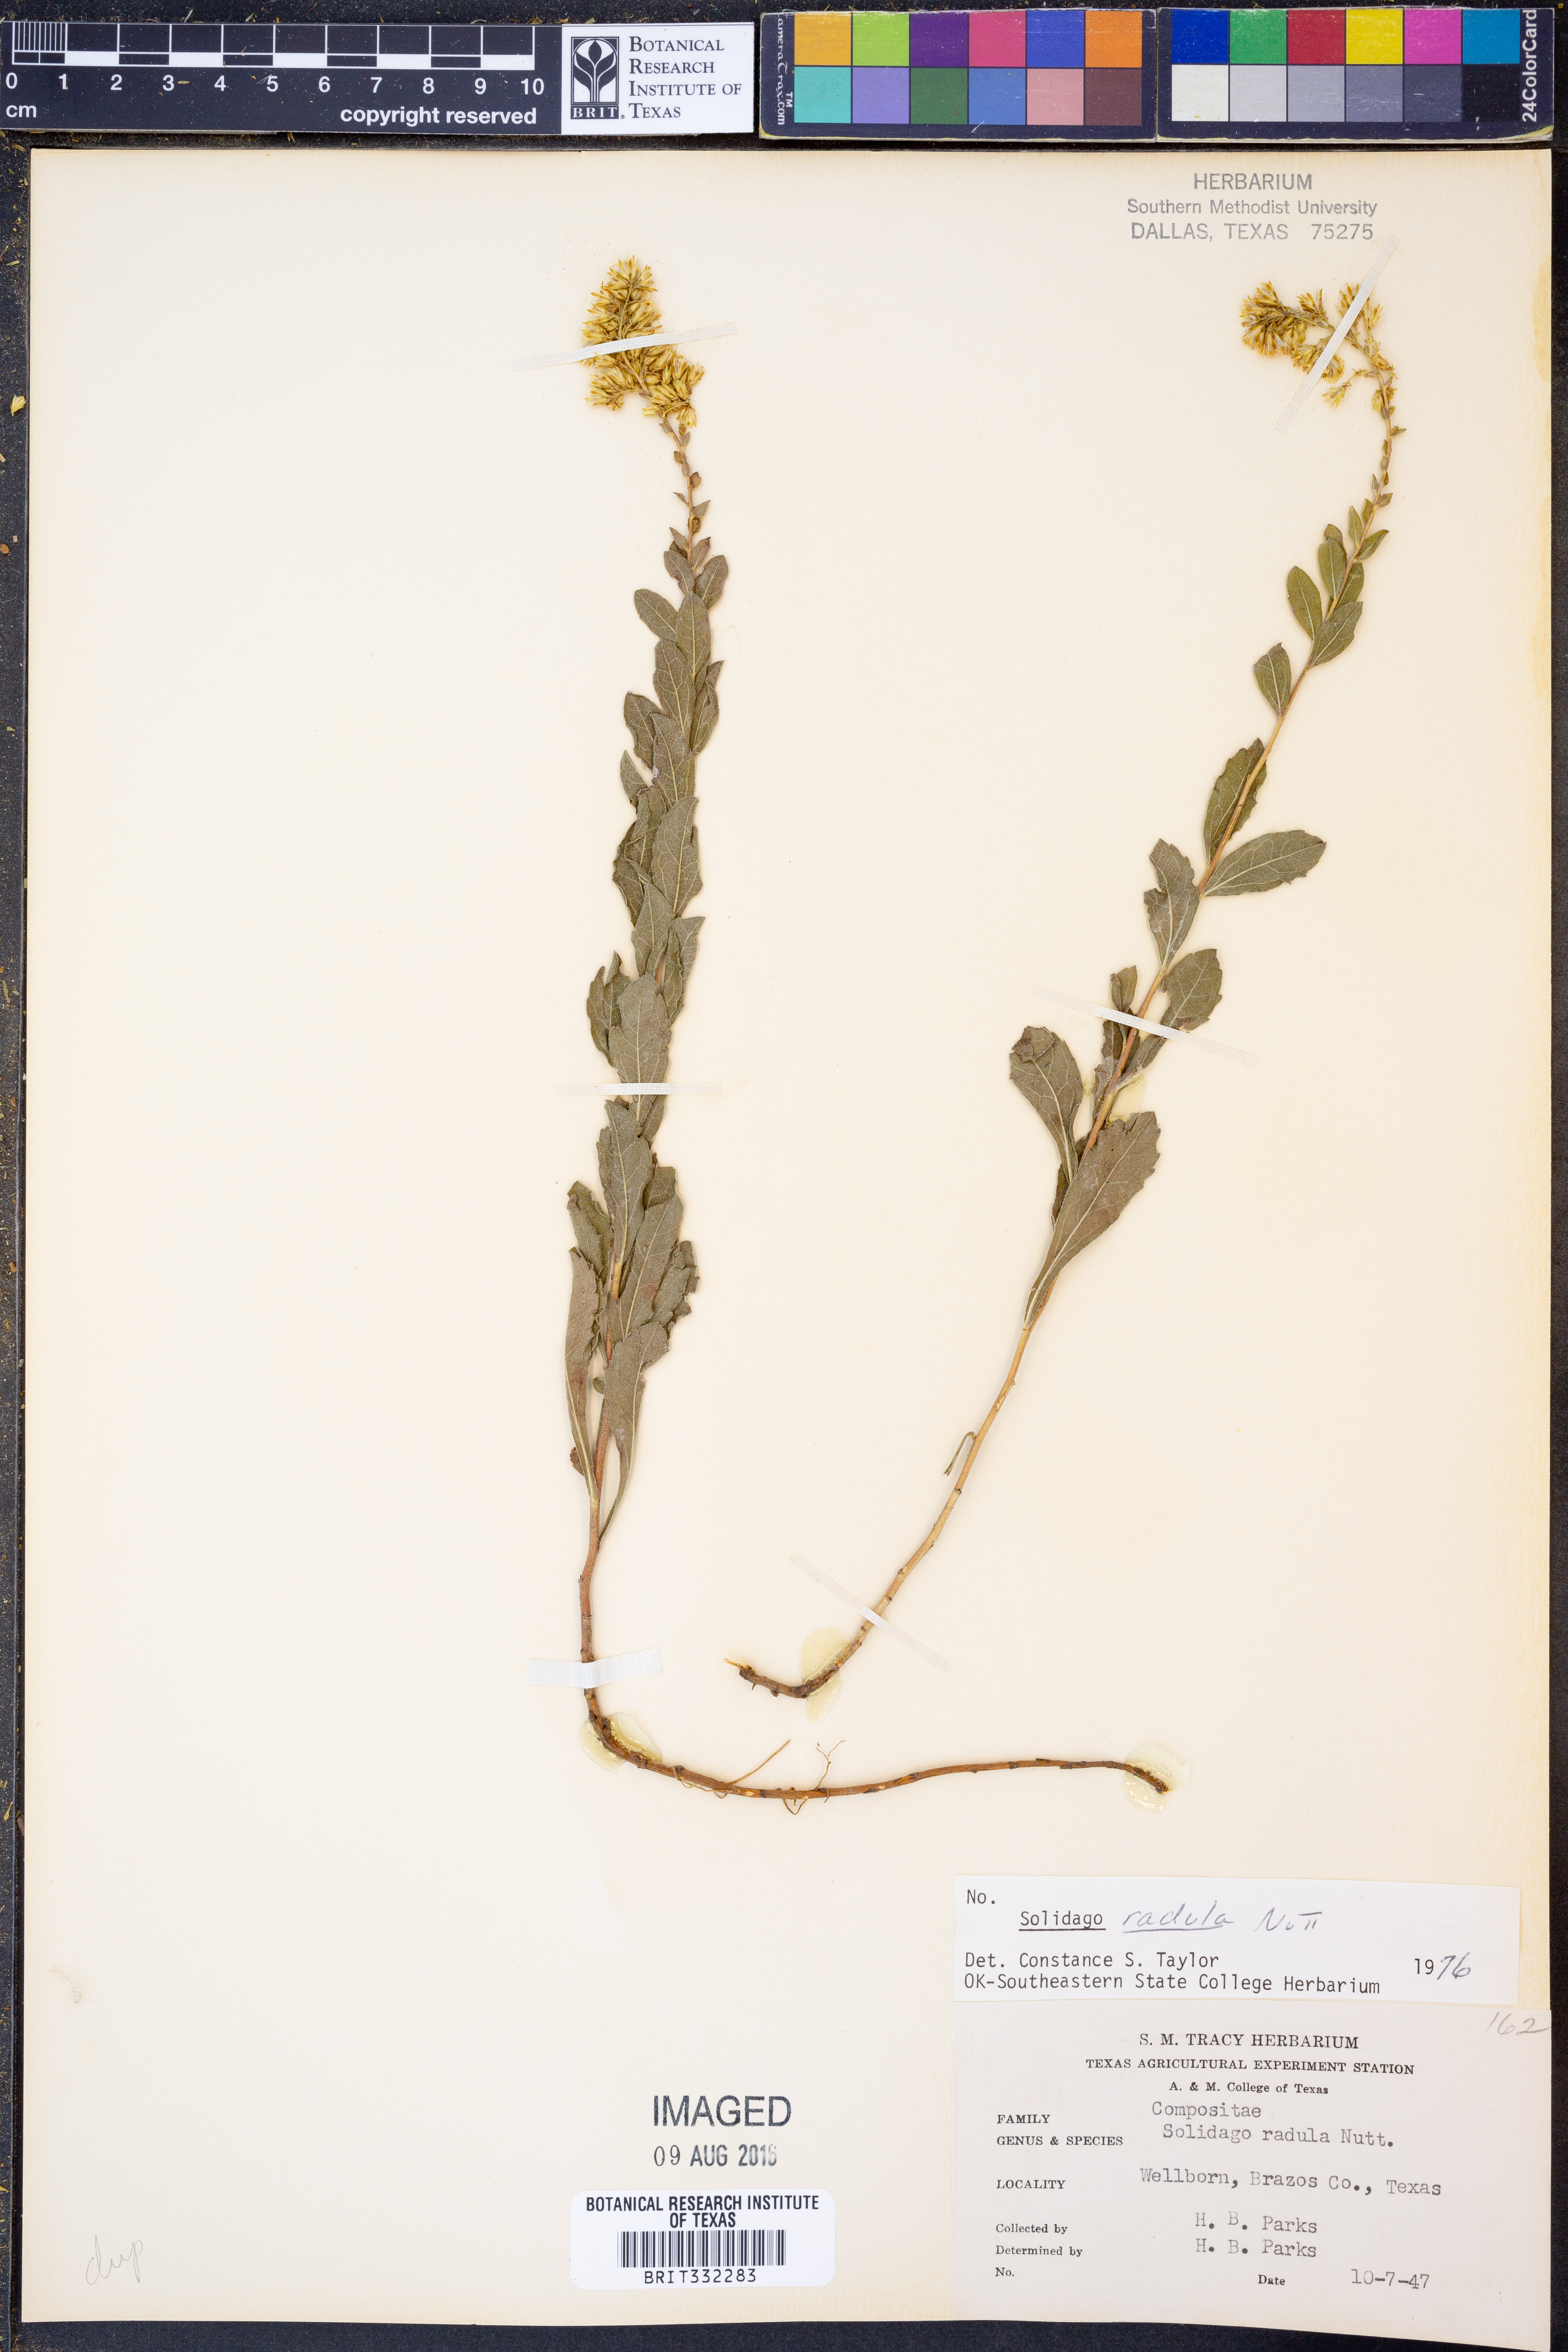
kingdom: Plantae
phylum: Tracheophyta
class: Magnoliopsida
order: Asterales
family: Asteraceae
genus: Solidago
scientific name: Solidago radula
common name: Western rough goldenrod
